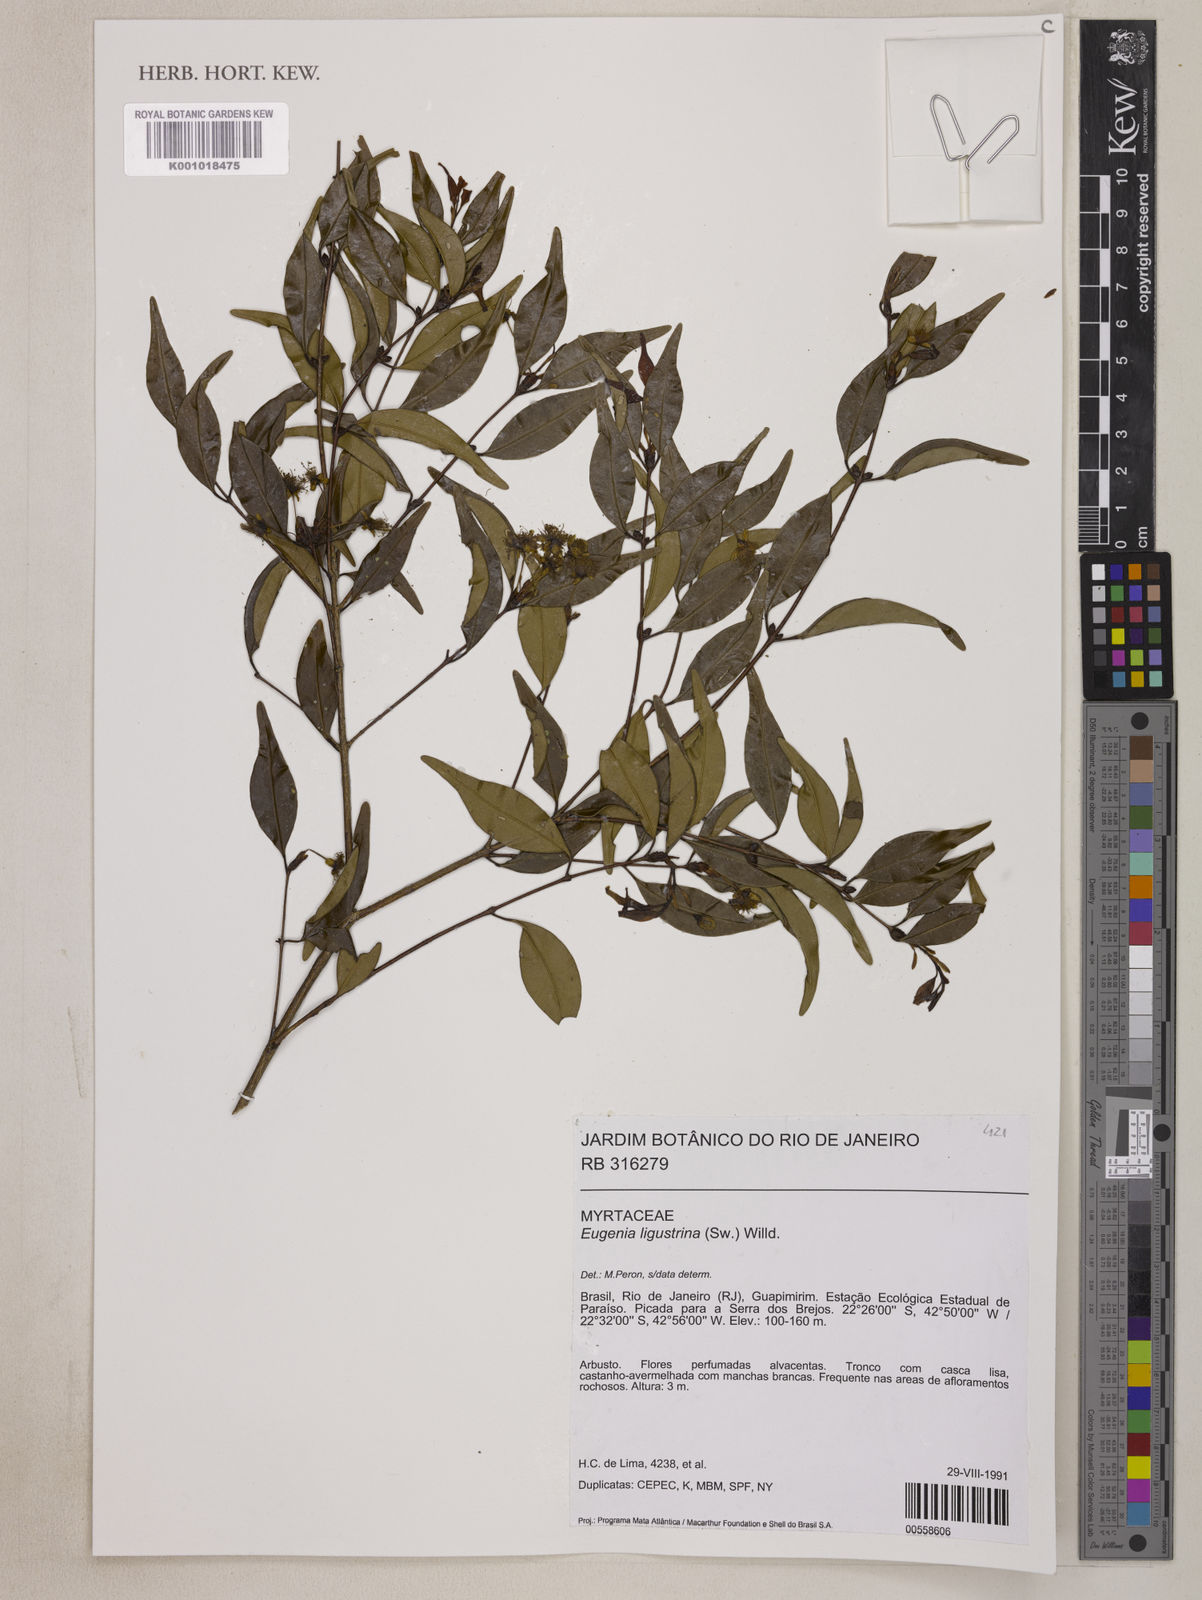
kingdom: Plantae
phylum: Tracheophyta
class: Magnoliopsida
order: Myrtales
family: Myrtaceae
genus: Eugenia
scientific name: Eugenia ligustrina
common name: Privet stopper
